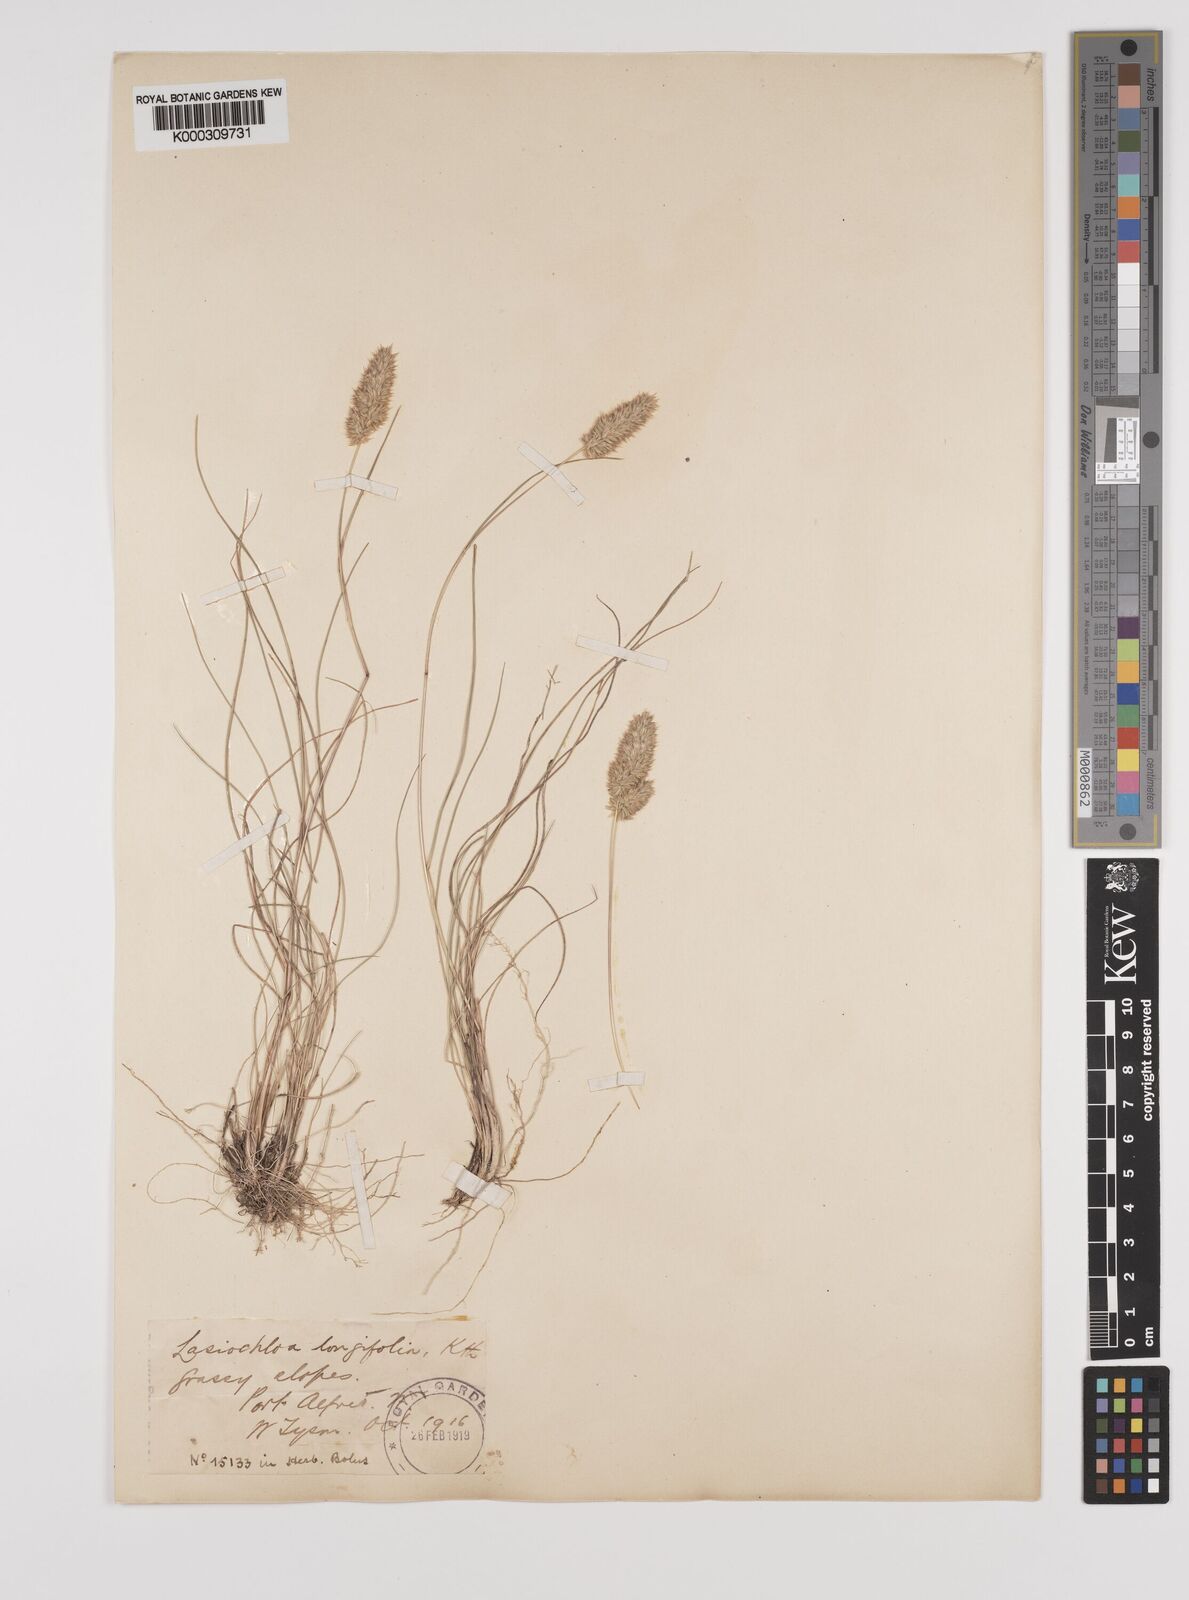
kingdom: Plantae
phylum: Tracheophyta
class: Liliopsida
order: Poales
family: Poaceae
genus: Tribolium
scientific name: Tribolium hispidum
